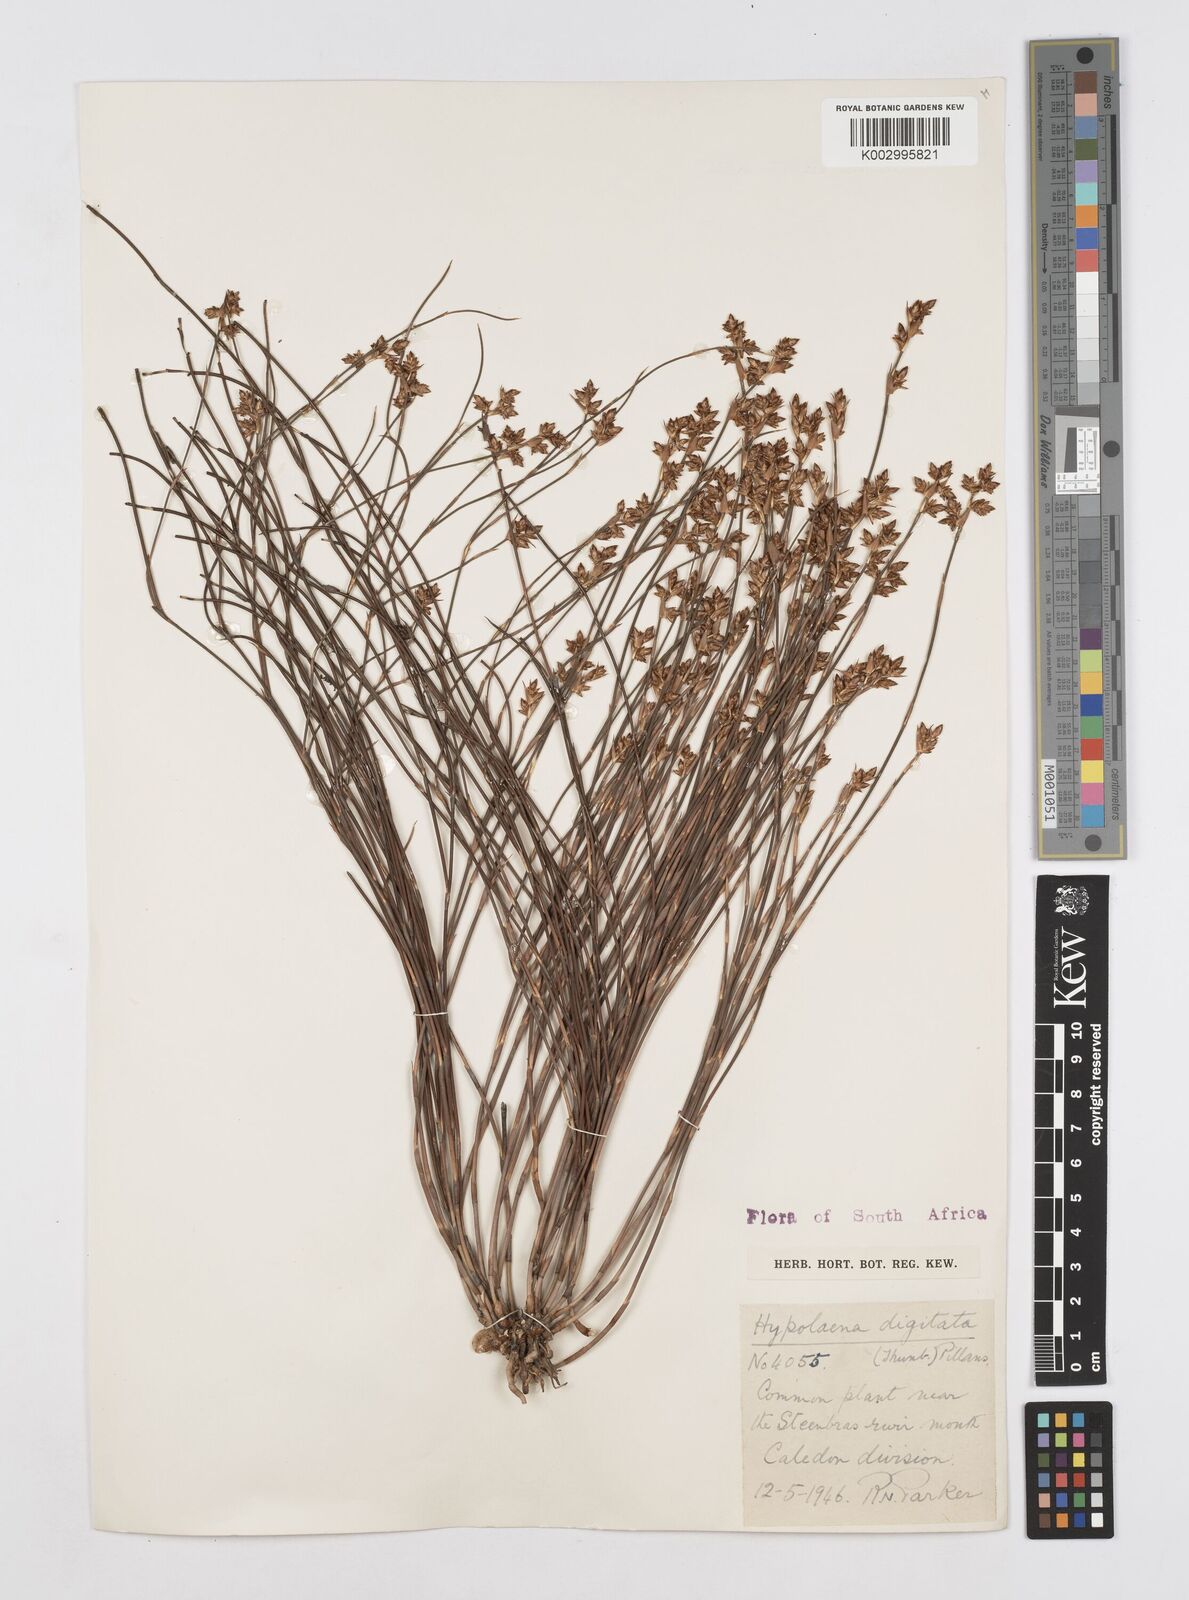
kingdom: Plantae
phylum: Tracheophyta
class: Liliopsida
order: Poales
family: Restionaceae
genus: Mastersiella
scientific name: Mastersiella digitata
